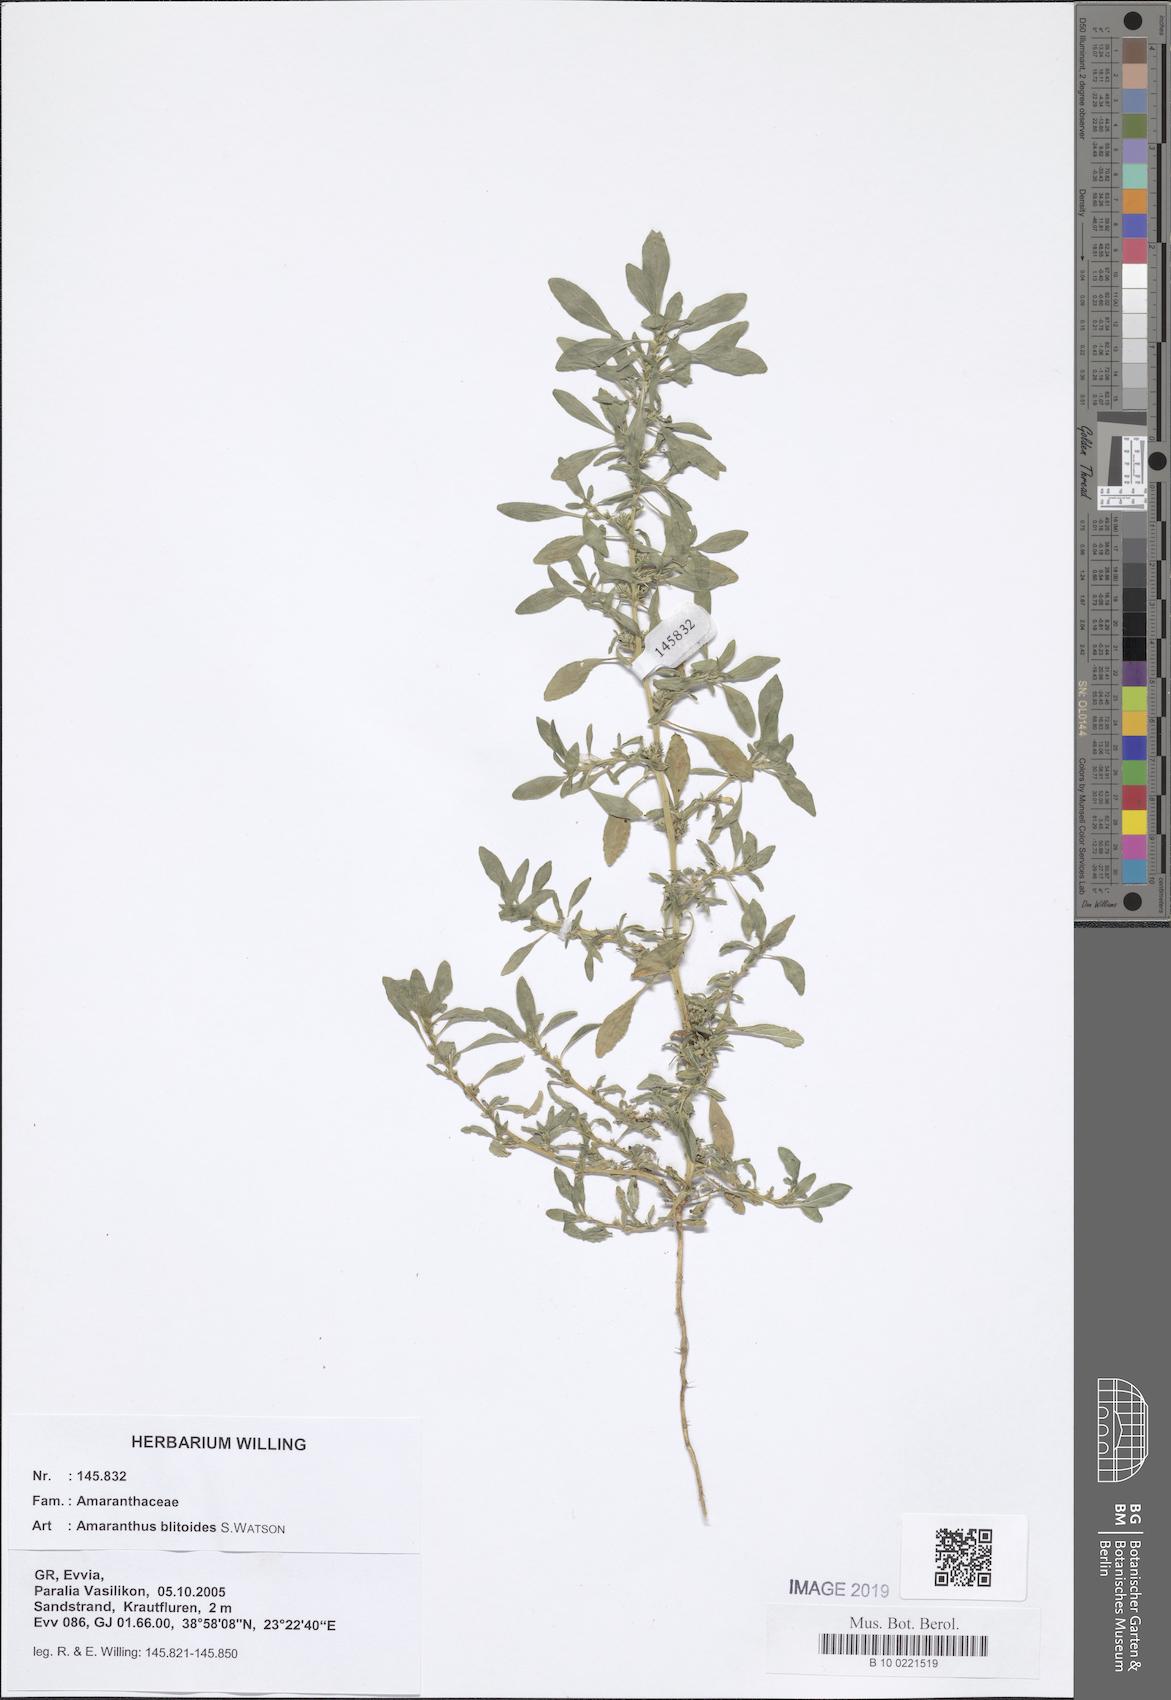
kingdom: Plantae
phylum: Tracheophyta
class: Magnoliopsida
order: Caryophyllales
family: Amaranthaceae
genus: Amaranthus
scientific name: Amaranthus blitoides
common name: Prostrate pigweed
